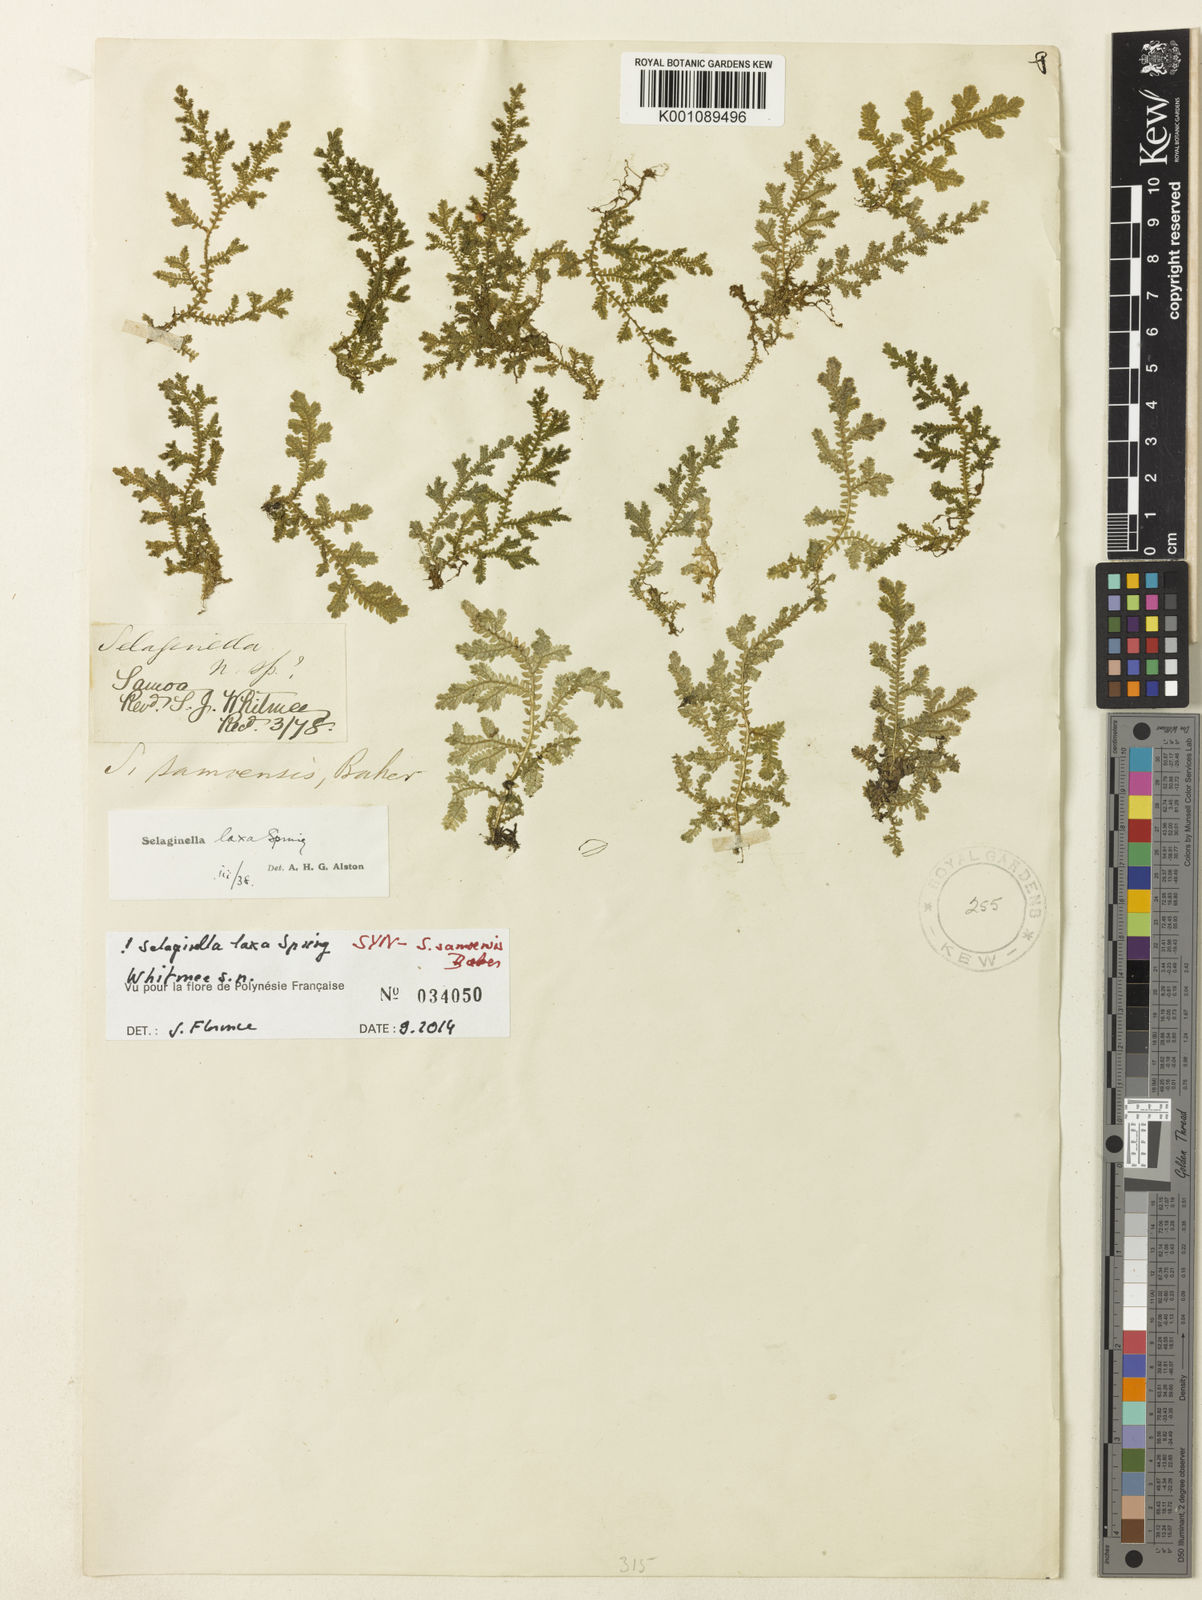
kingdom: Plantae
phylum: Tracheophyta
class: Lycopodiopsida
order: Selaginellales
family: Selaginellaceae
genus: Selaginella
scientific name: Selaginella laxa
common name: Lax spikemoss
